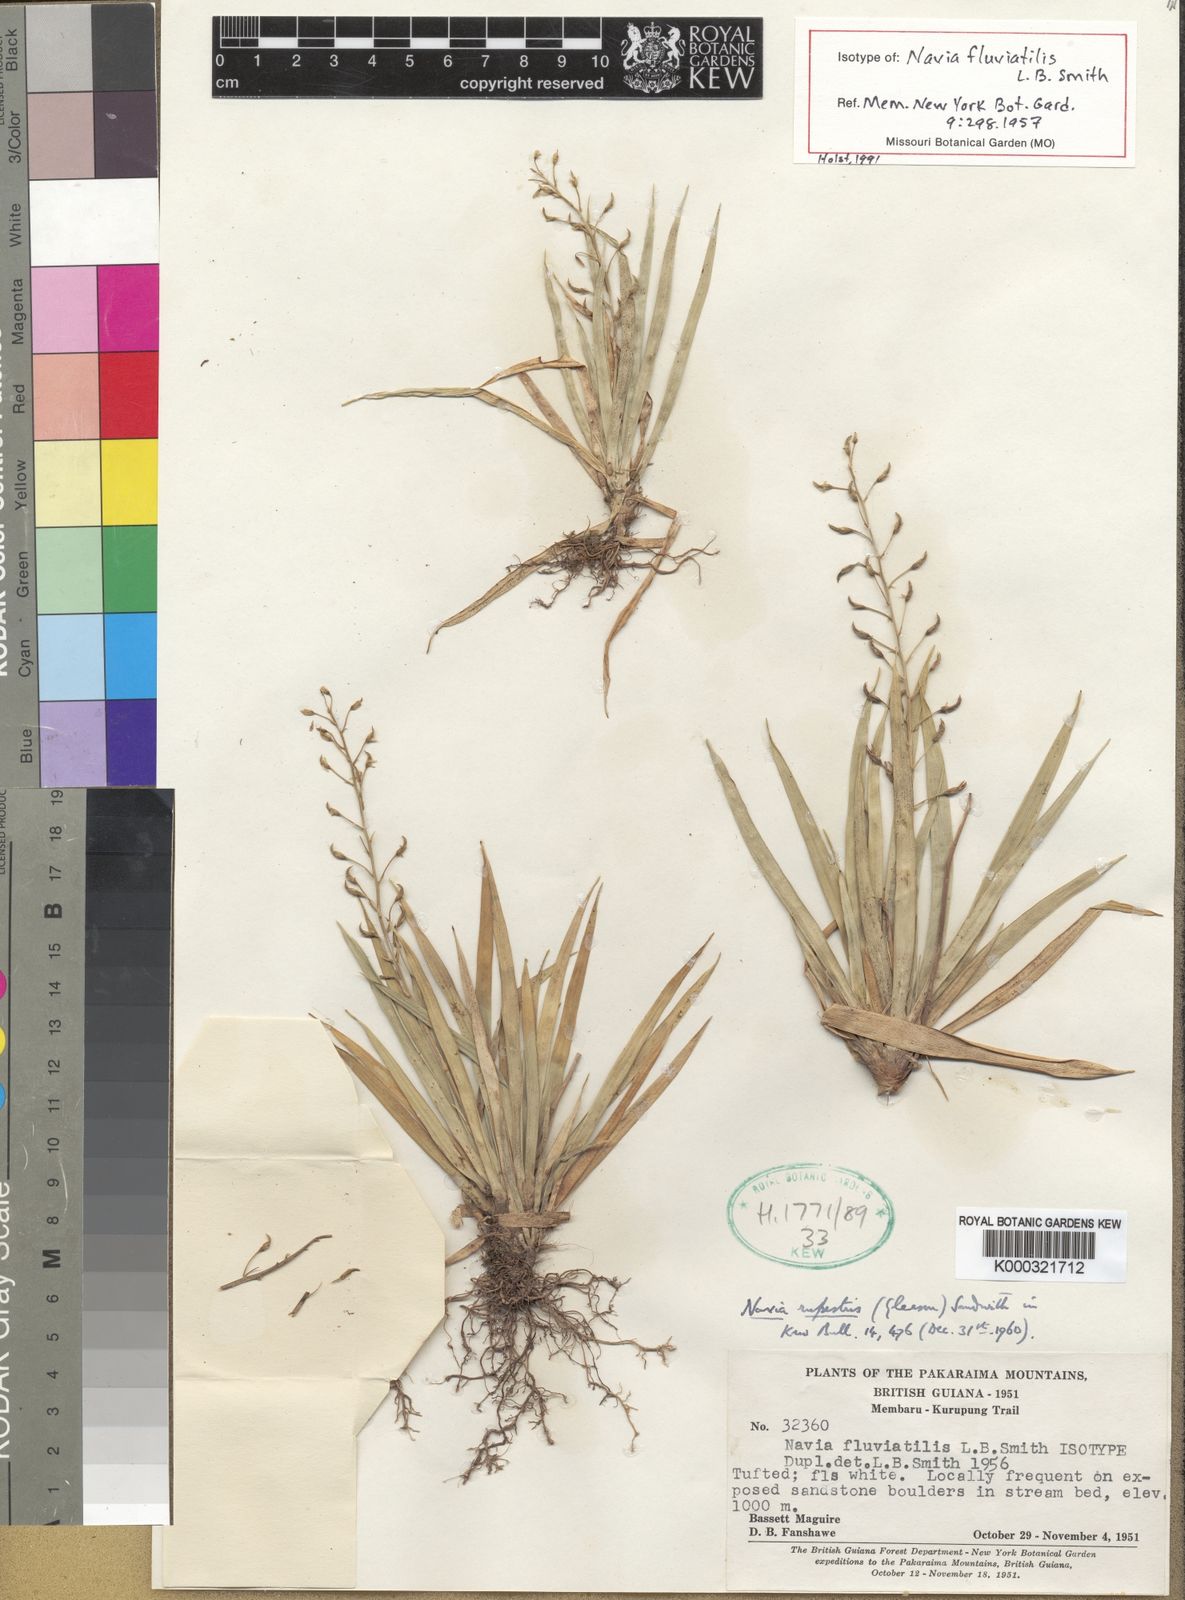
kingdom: Plantae
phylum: Tracheophyta
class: Liliopsida
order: Poales
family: Bromeliaceae
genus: Brocchinia
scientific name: Brocchinia rupestris
